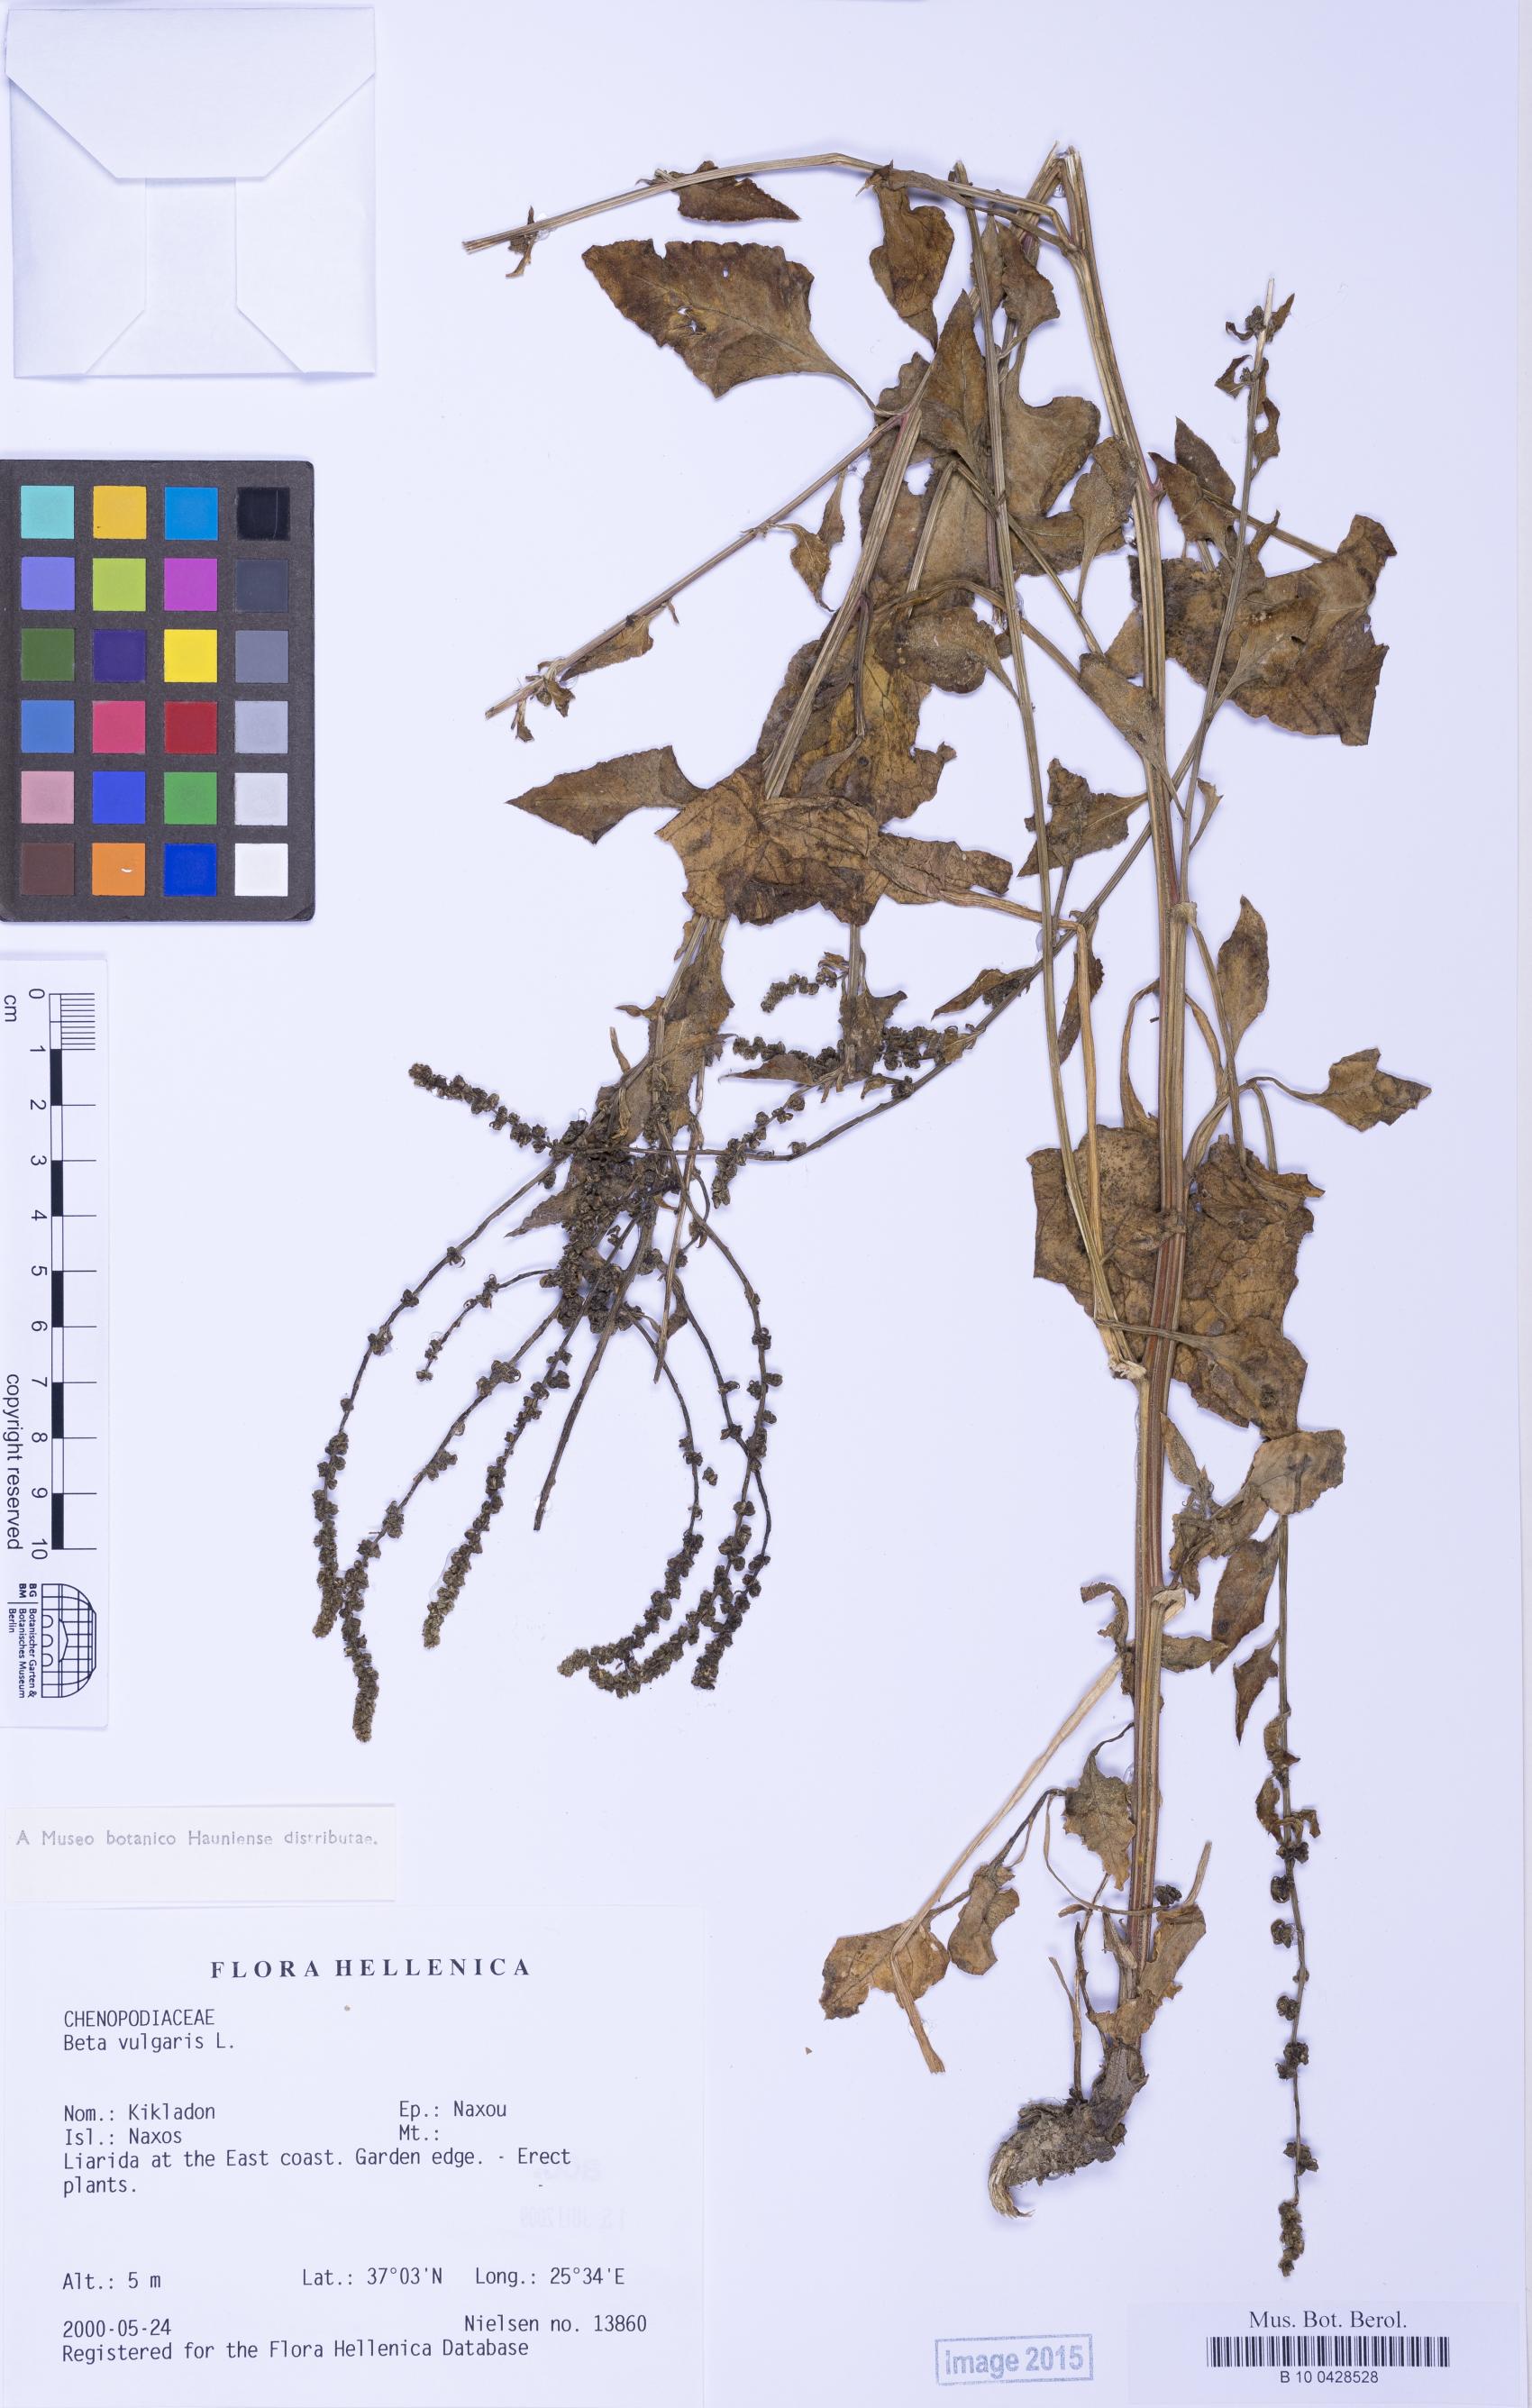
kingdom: Plantae
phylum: Tracheophyta
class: Magnoliopsida
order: Caryophyllales
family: Amaranthaceae
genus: Beta
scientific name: Beta maritima
